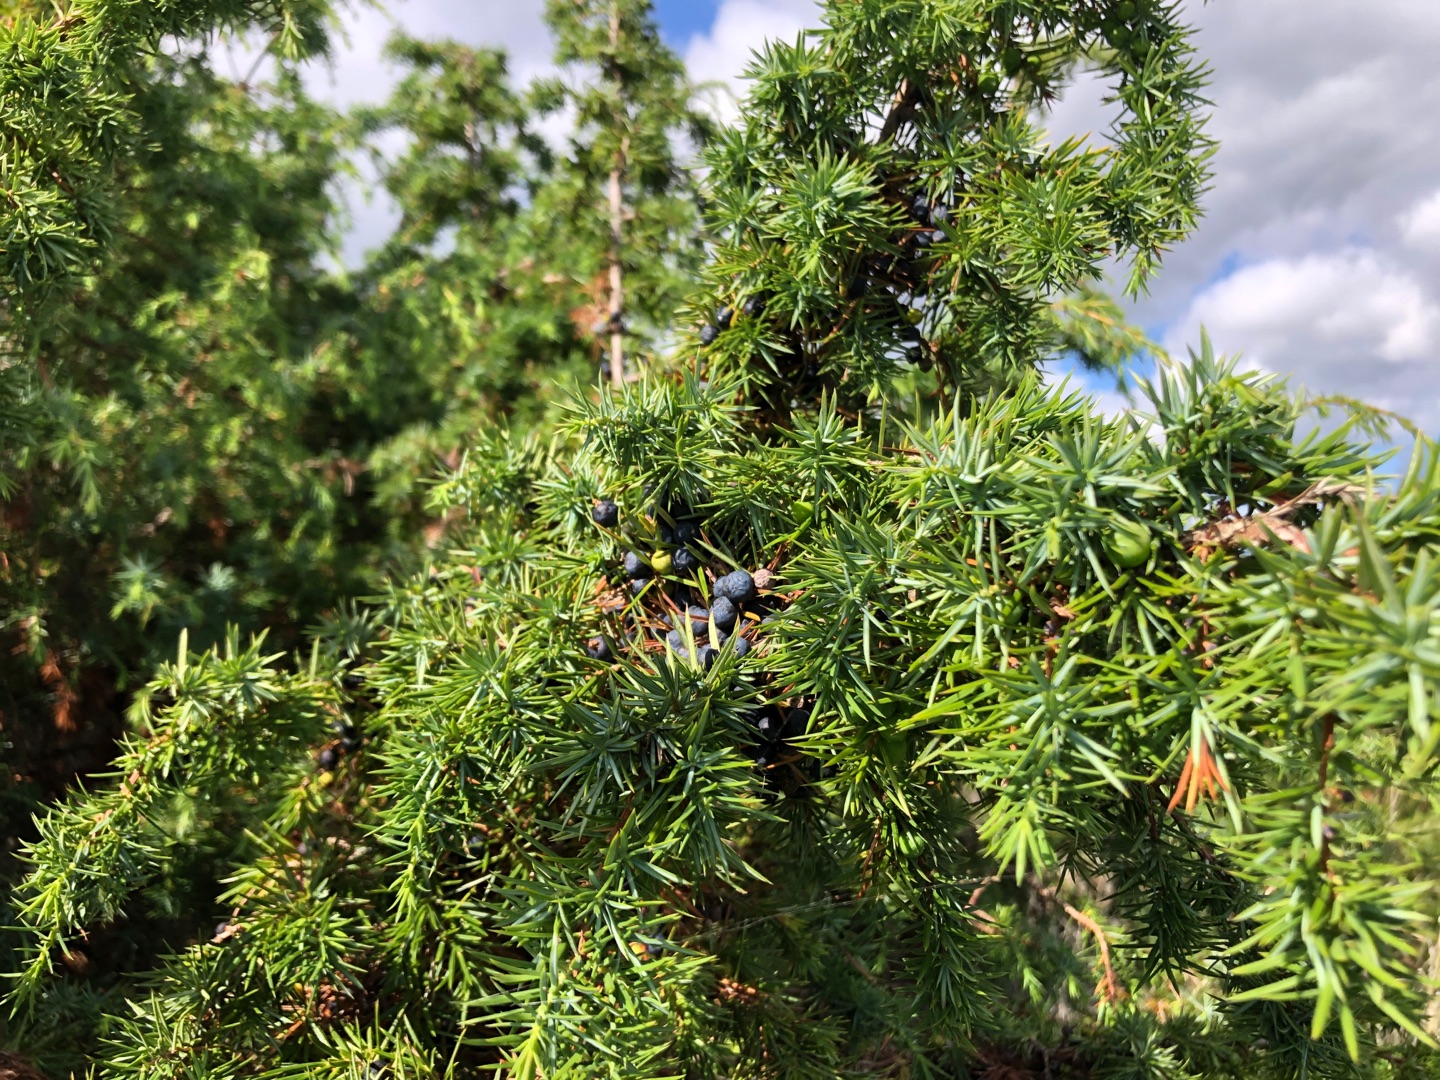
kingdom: Plantae
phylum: Tracheophyta
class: Pinopsida
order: Pinales
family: Cupressaceae
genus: Juniperus
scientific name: Juniperus communis
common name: Almindelig ene
